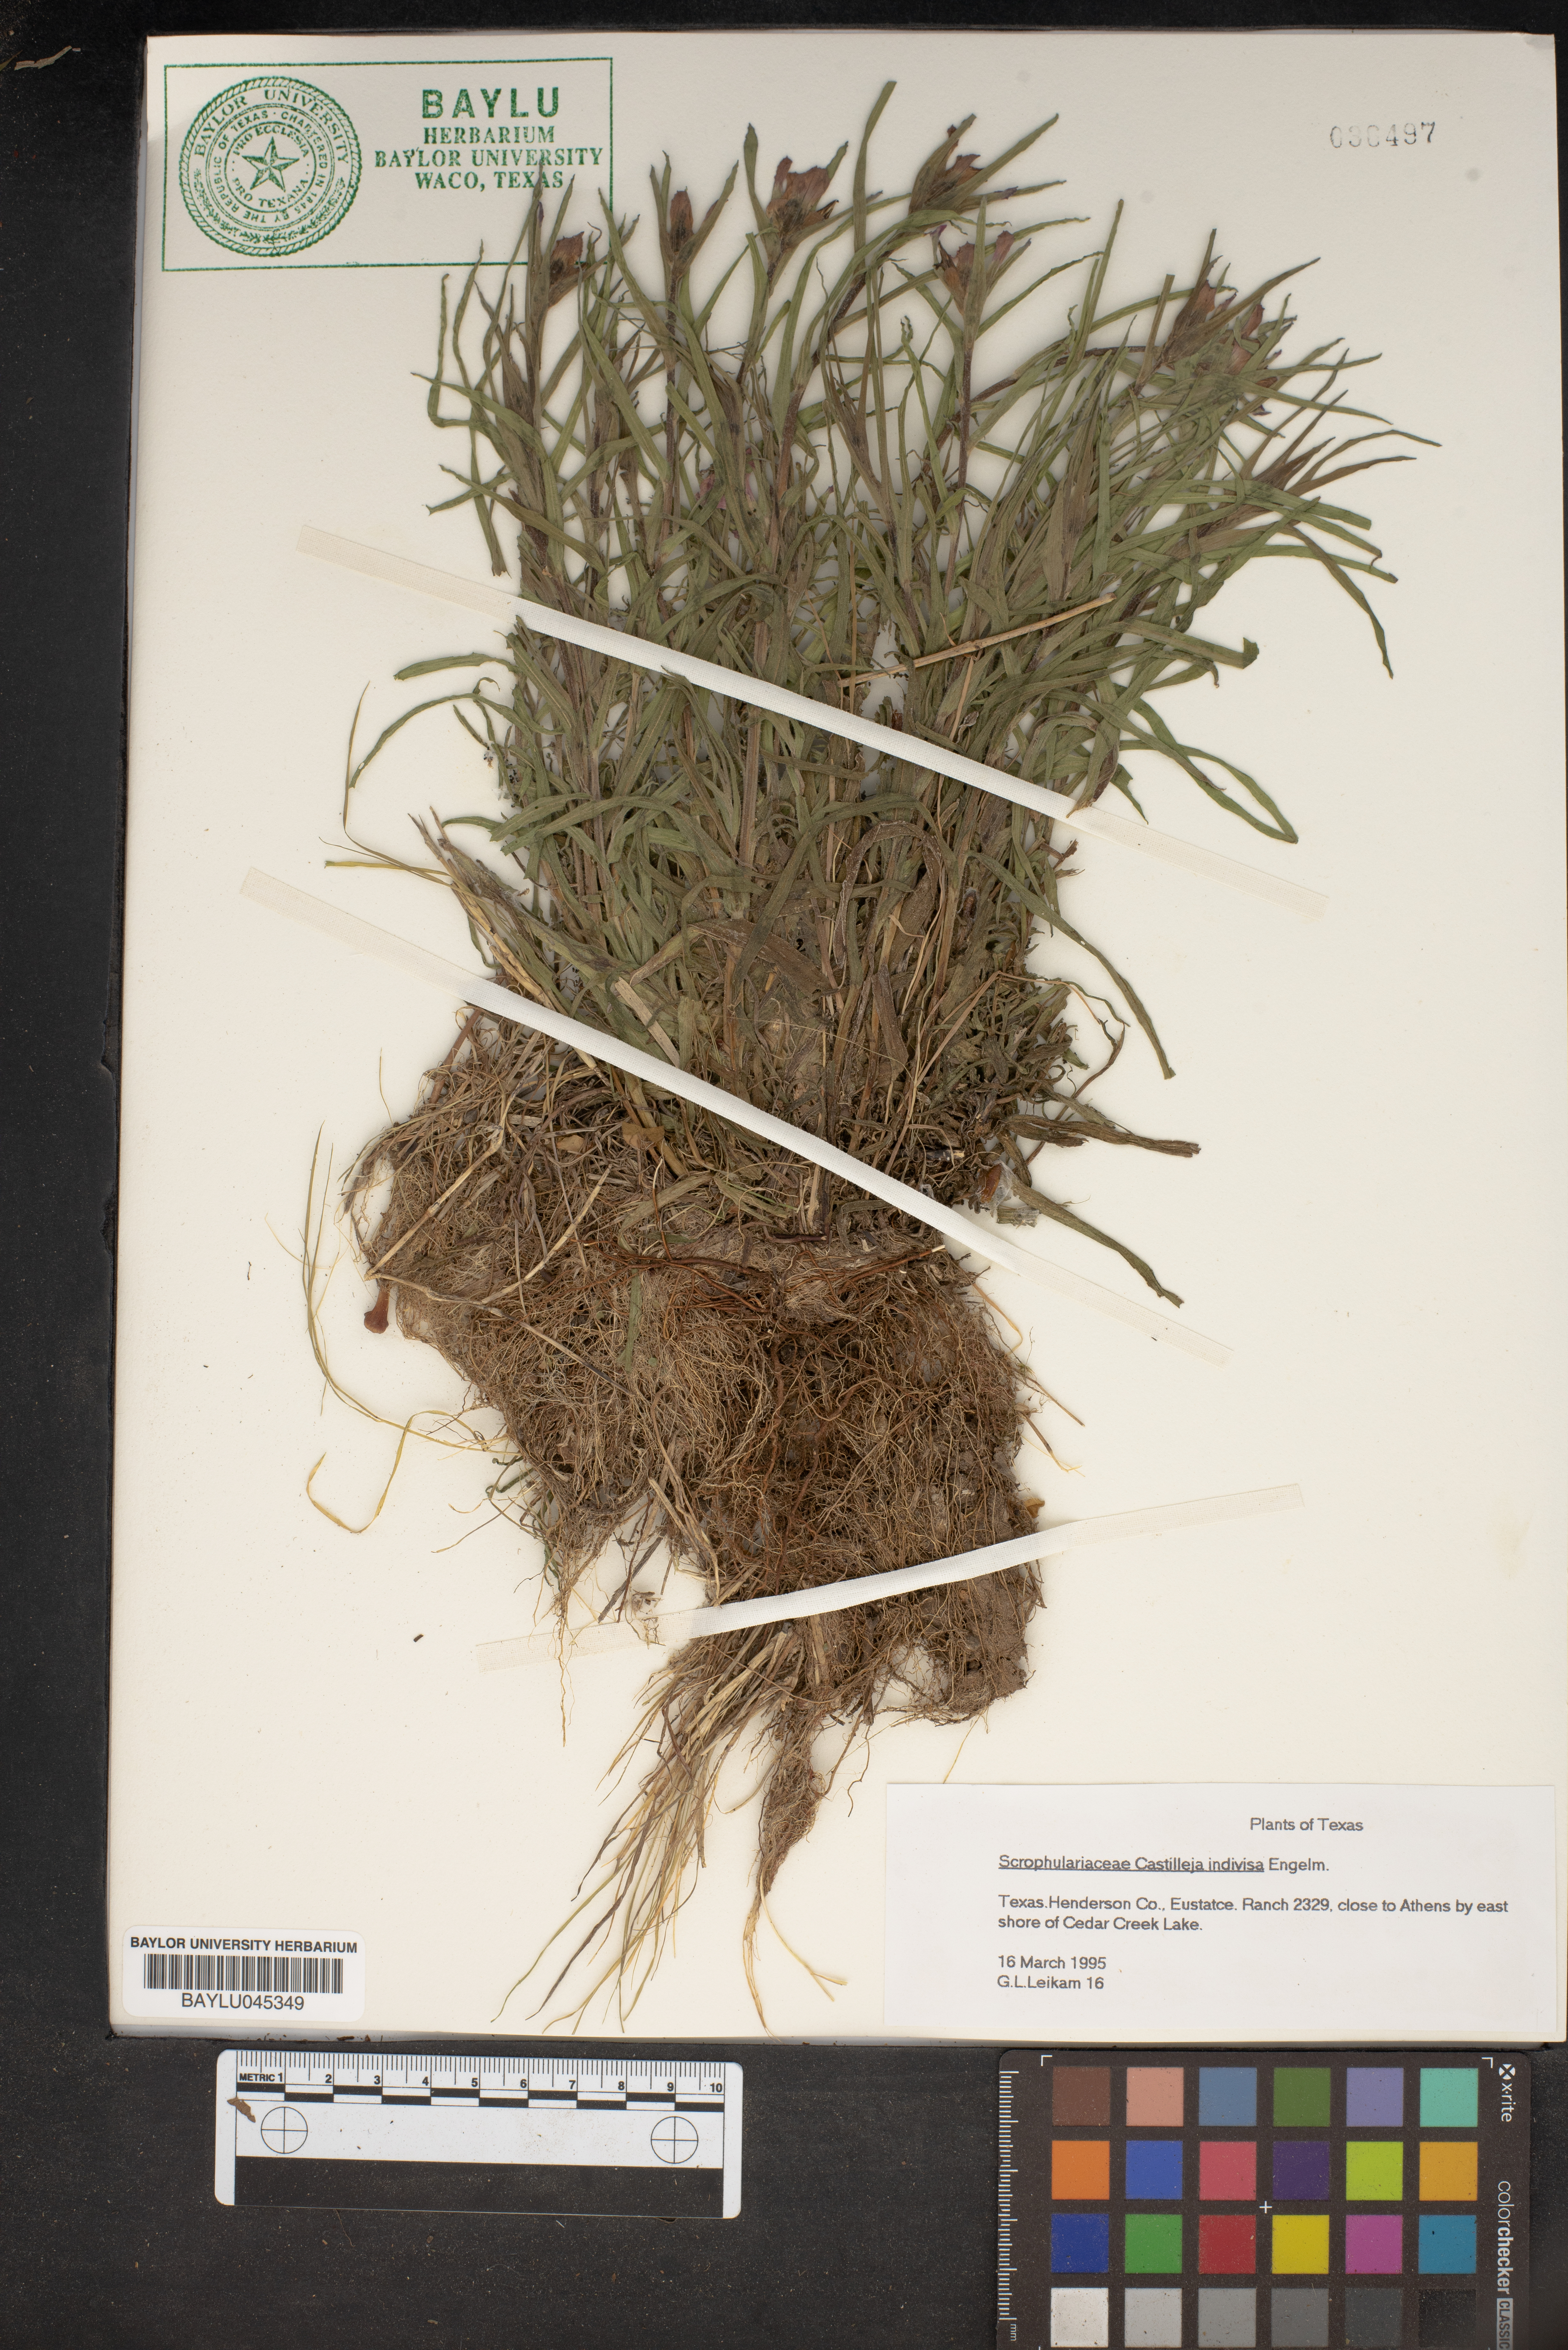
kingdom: Plantae
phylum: Tracheophyta
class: Magnoliopsida
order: Lamiales
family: Scrophulariaceae
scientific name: Scrophulariaceae
